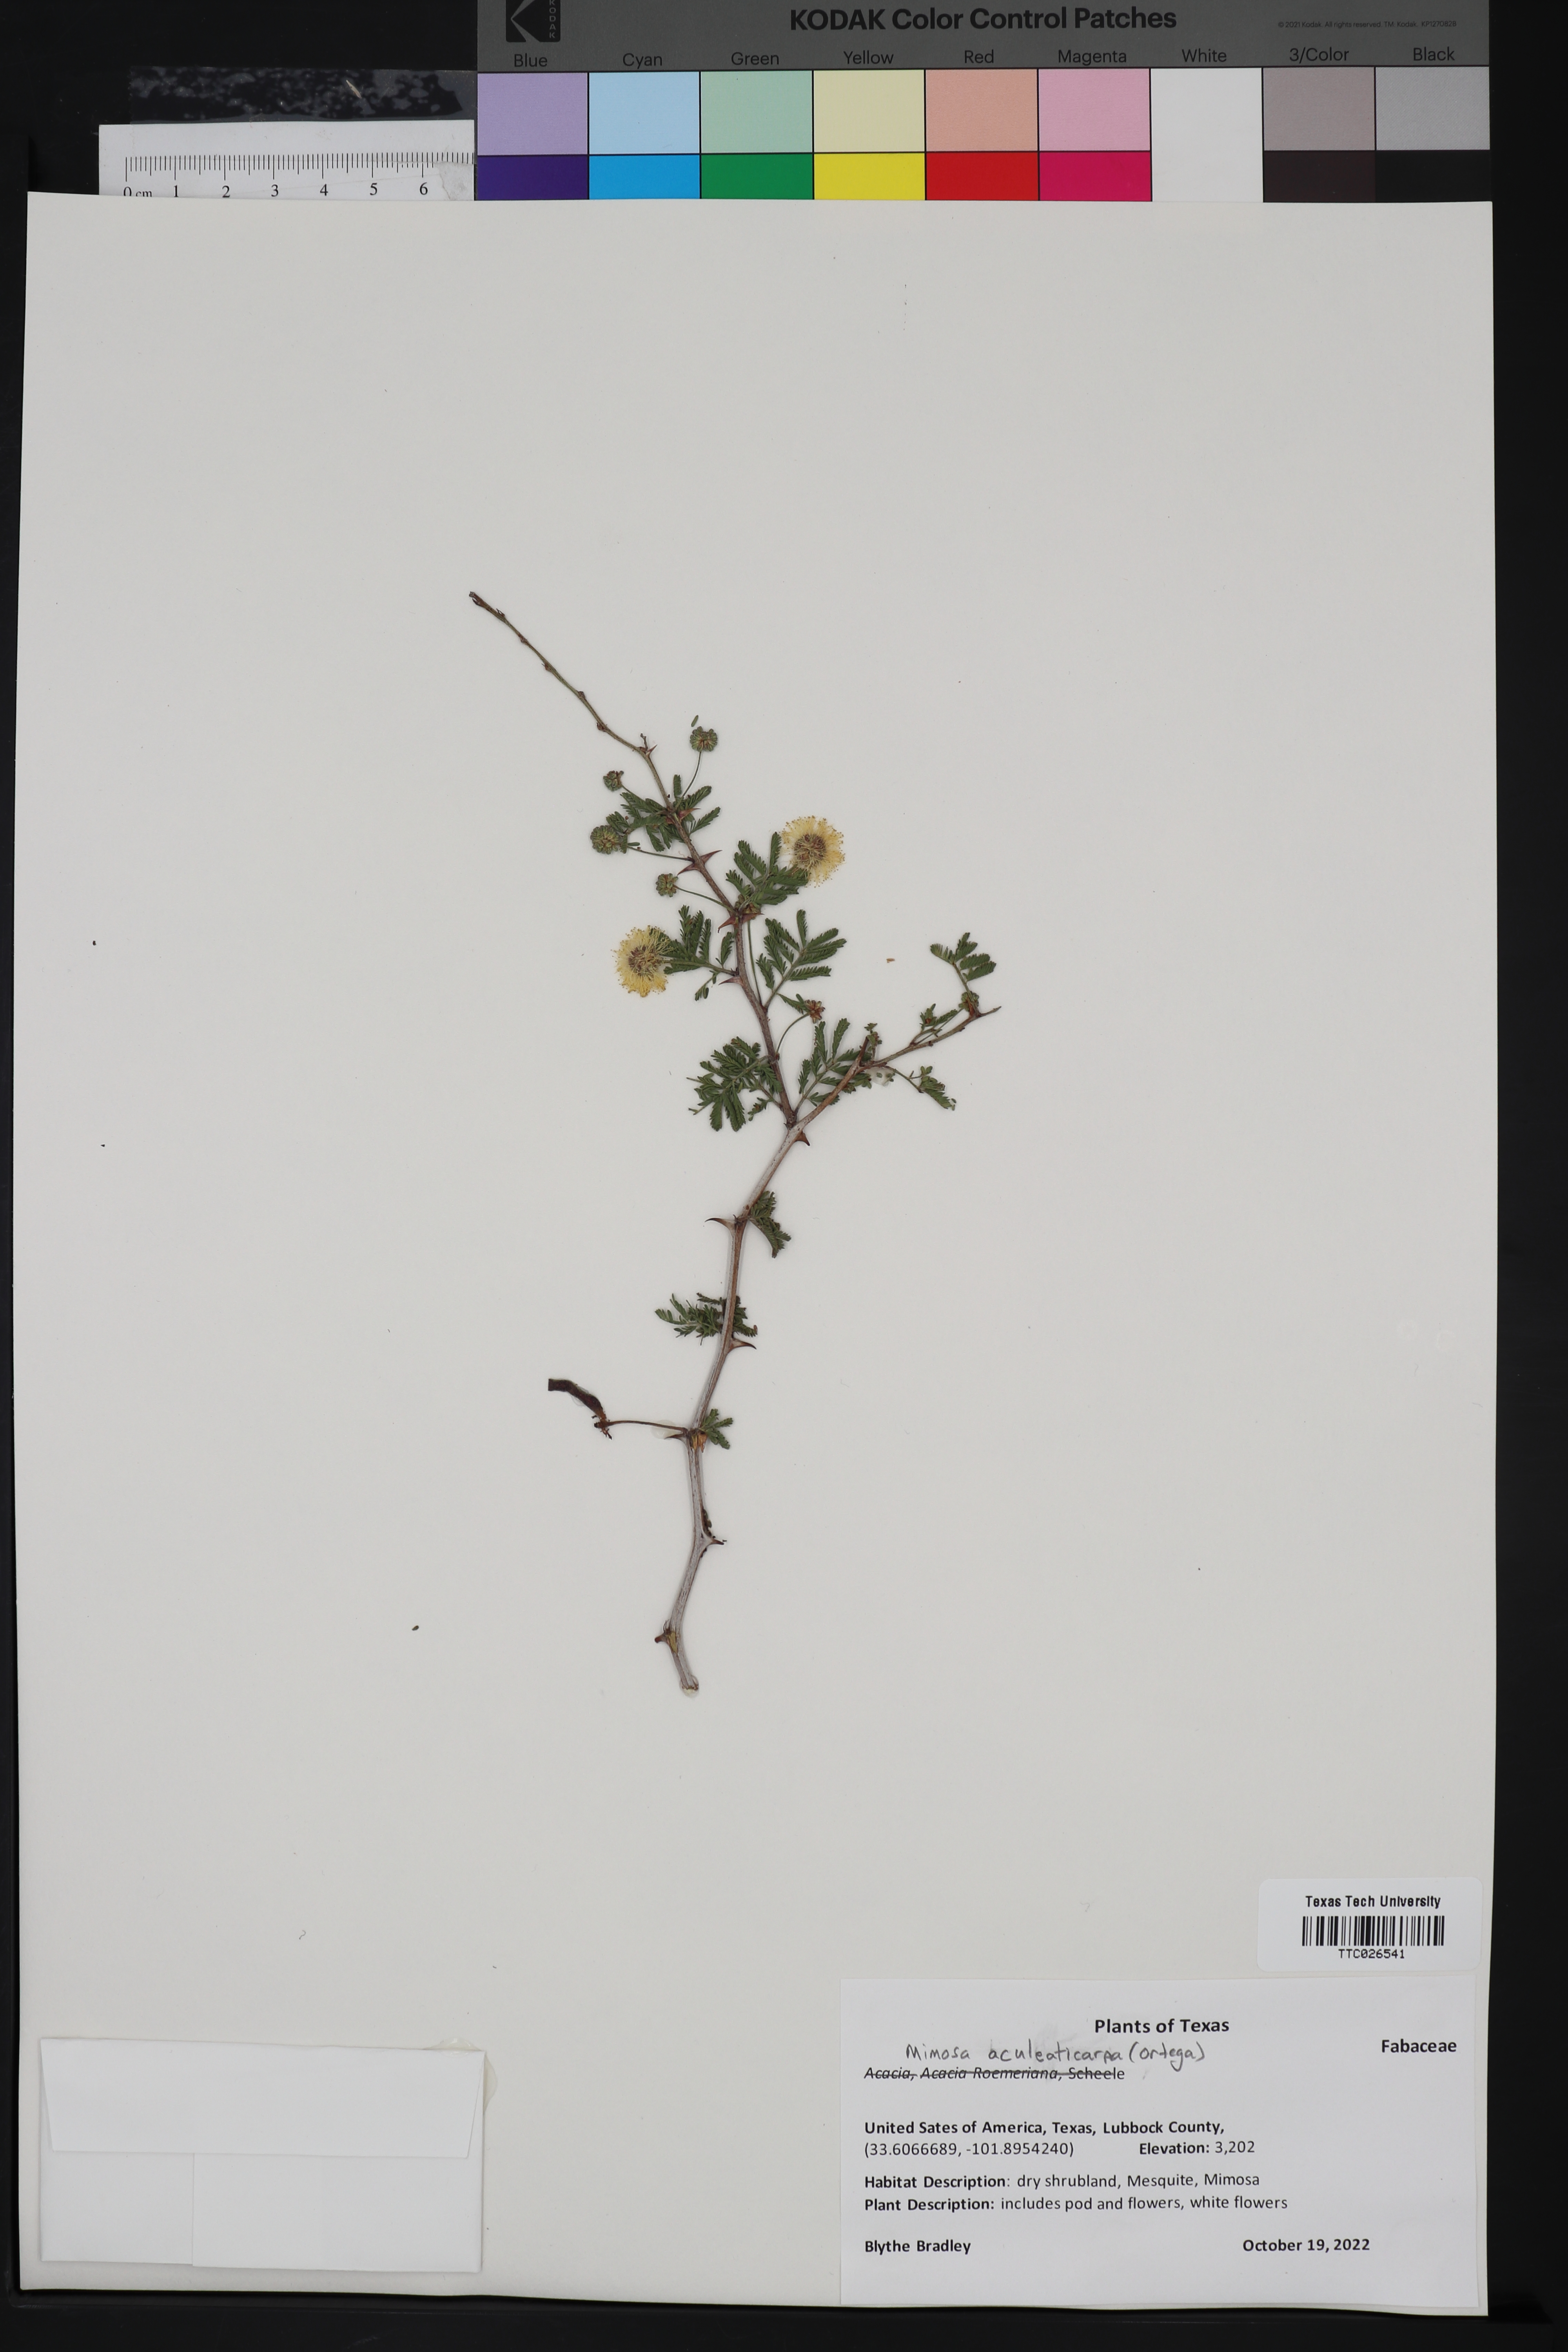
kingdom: Plantae
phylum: Tracheophyta
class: Magnoliopsida
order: Fabales
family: Fabaceae
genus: Mimosa
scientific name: Mimosa aculeaticarpa
